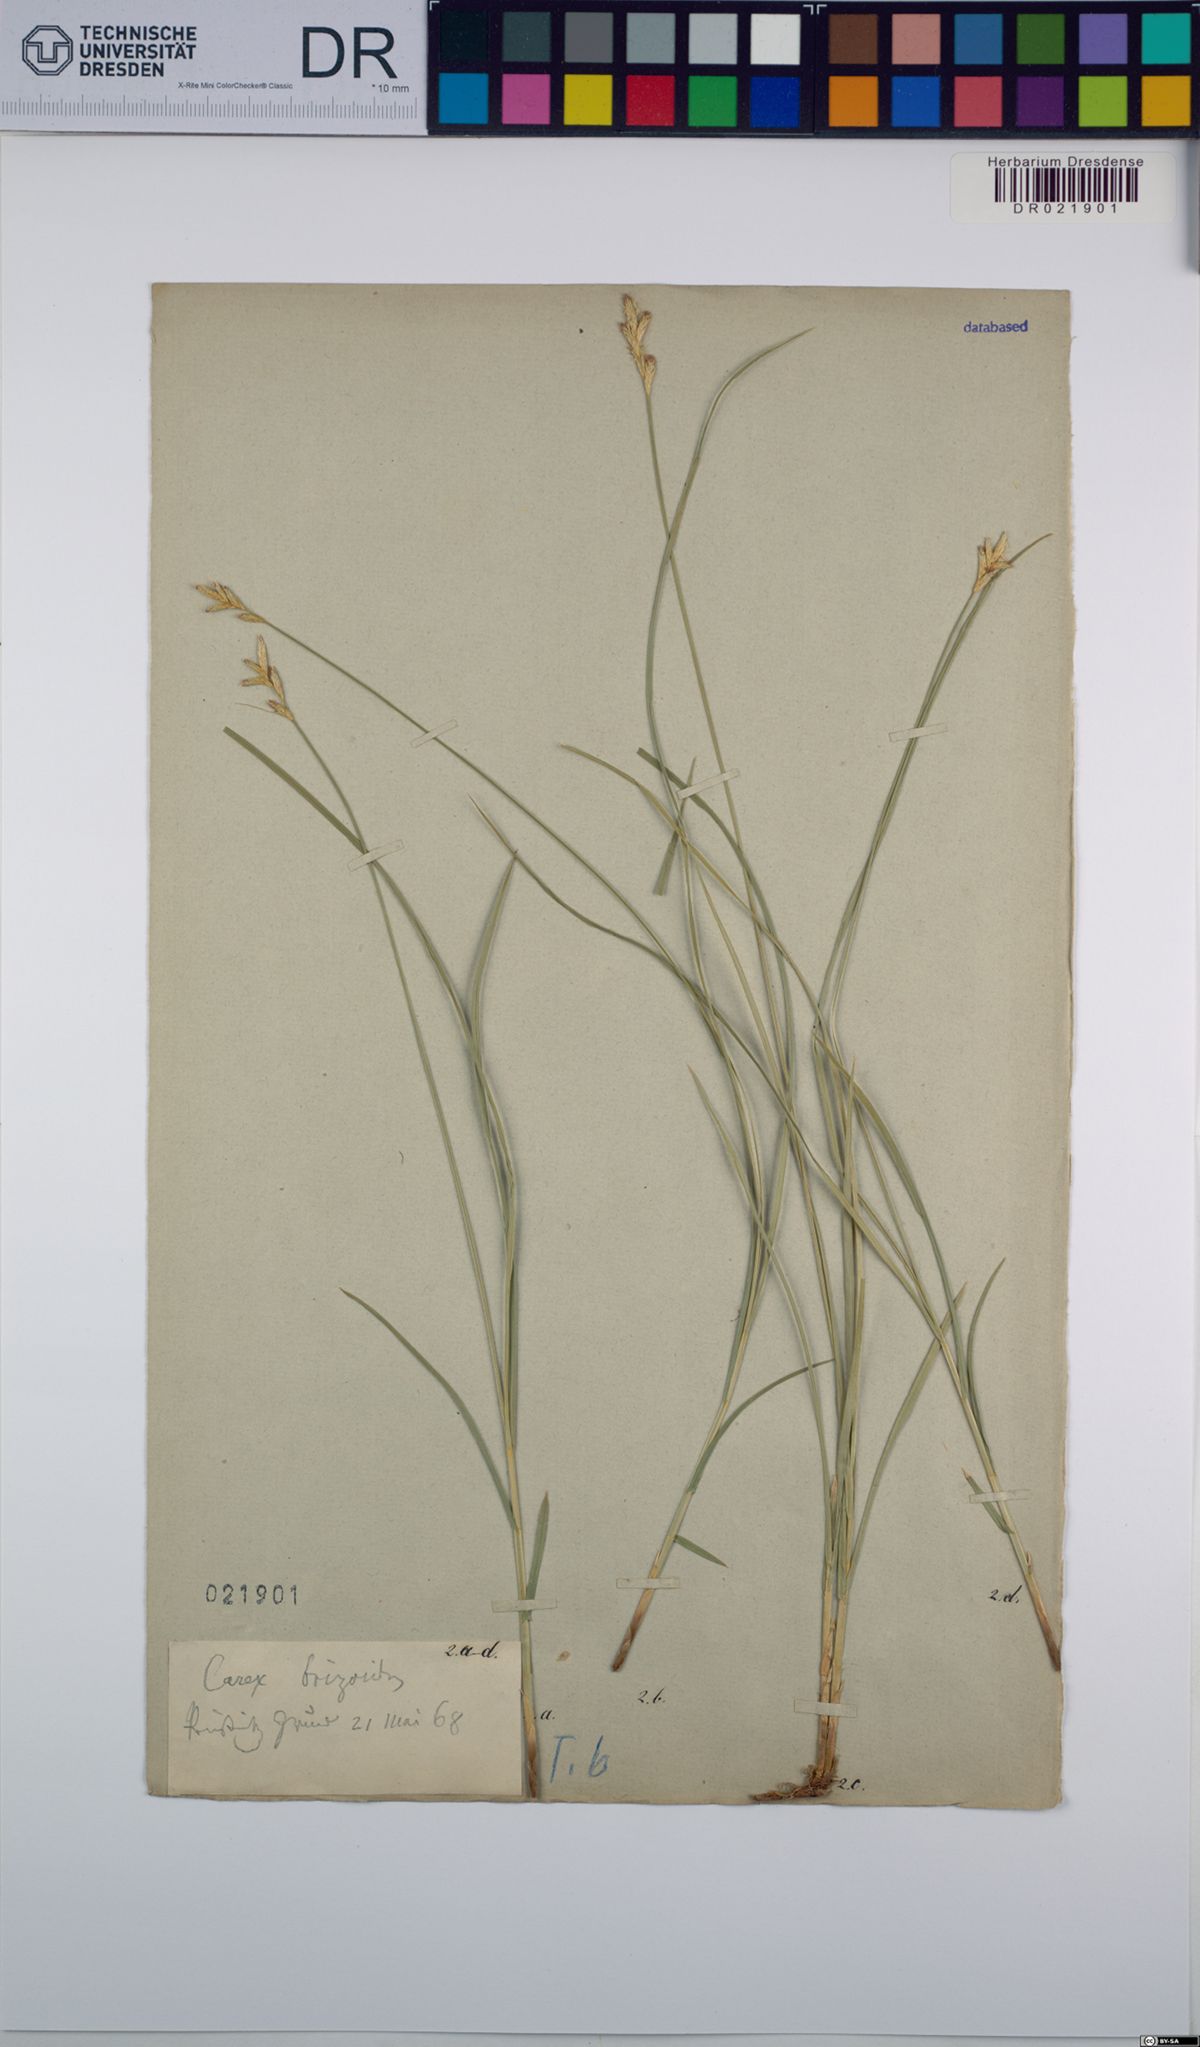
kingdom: Plantae
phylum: Tracheophyta
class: Liliopsida
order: Poales
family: Cyperaceae
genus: Carex
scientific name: Carex brizoides
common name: Quaking-grass sedge
